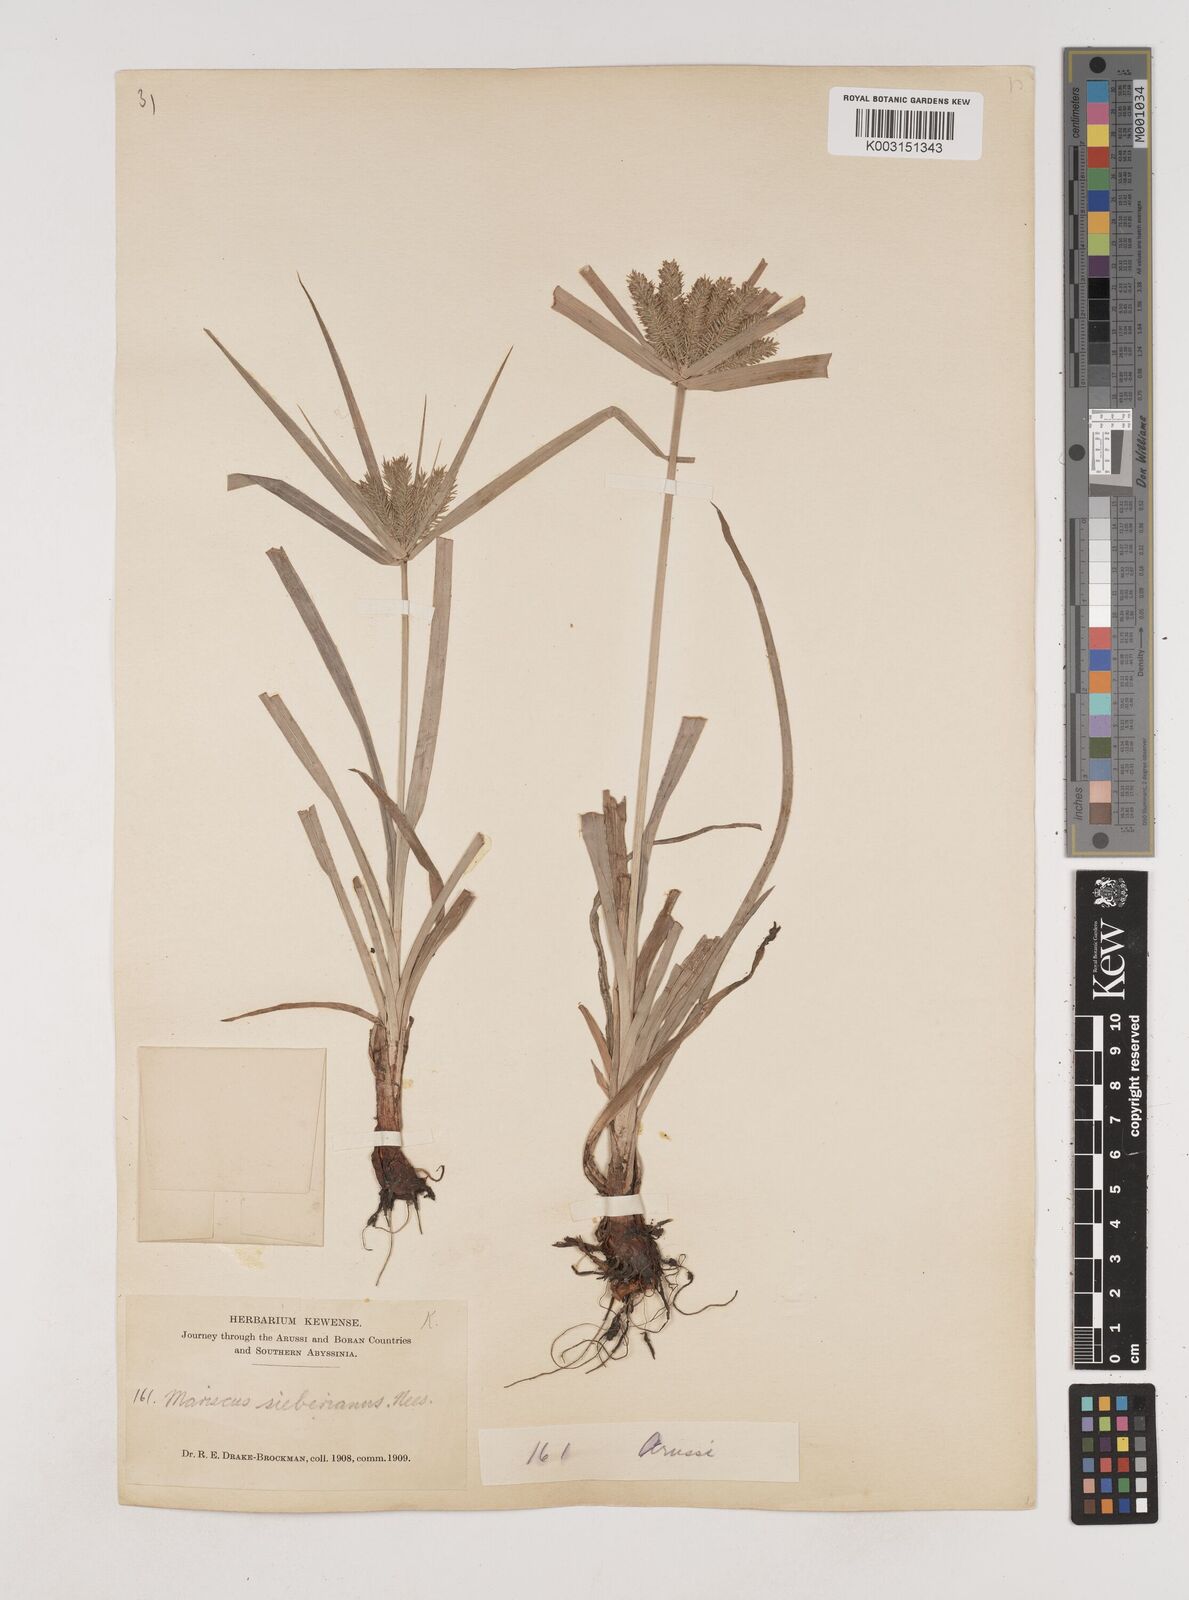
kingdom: Plantae
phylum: Tracheophyta
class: Liliopsida
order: Poales
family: Cyperaceae
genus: Cyperus
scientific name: Cyperus cyperoides
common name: Pacific island flat sedge
